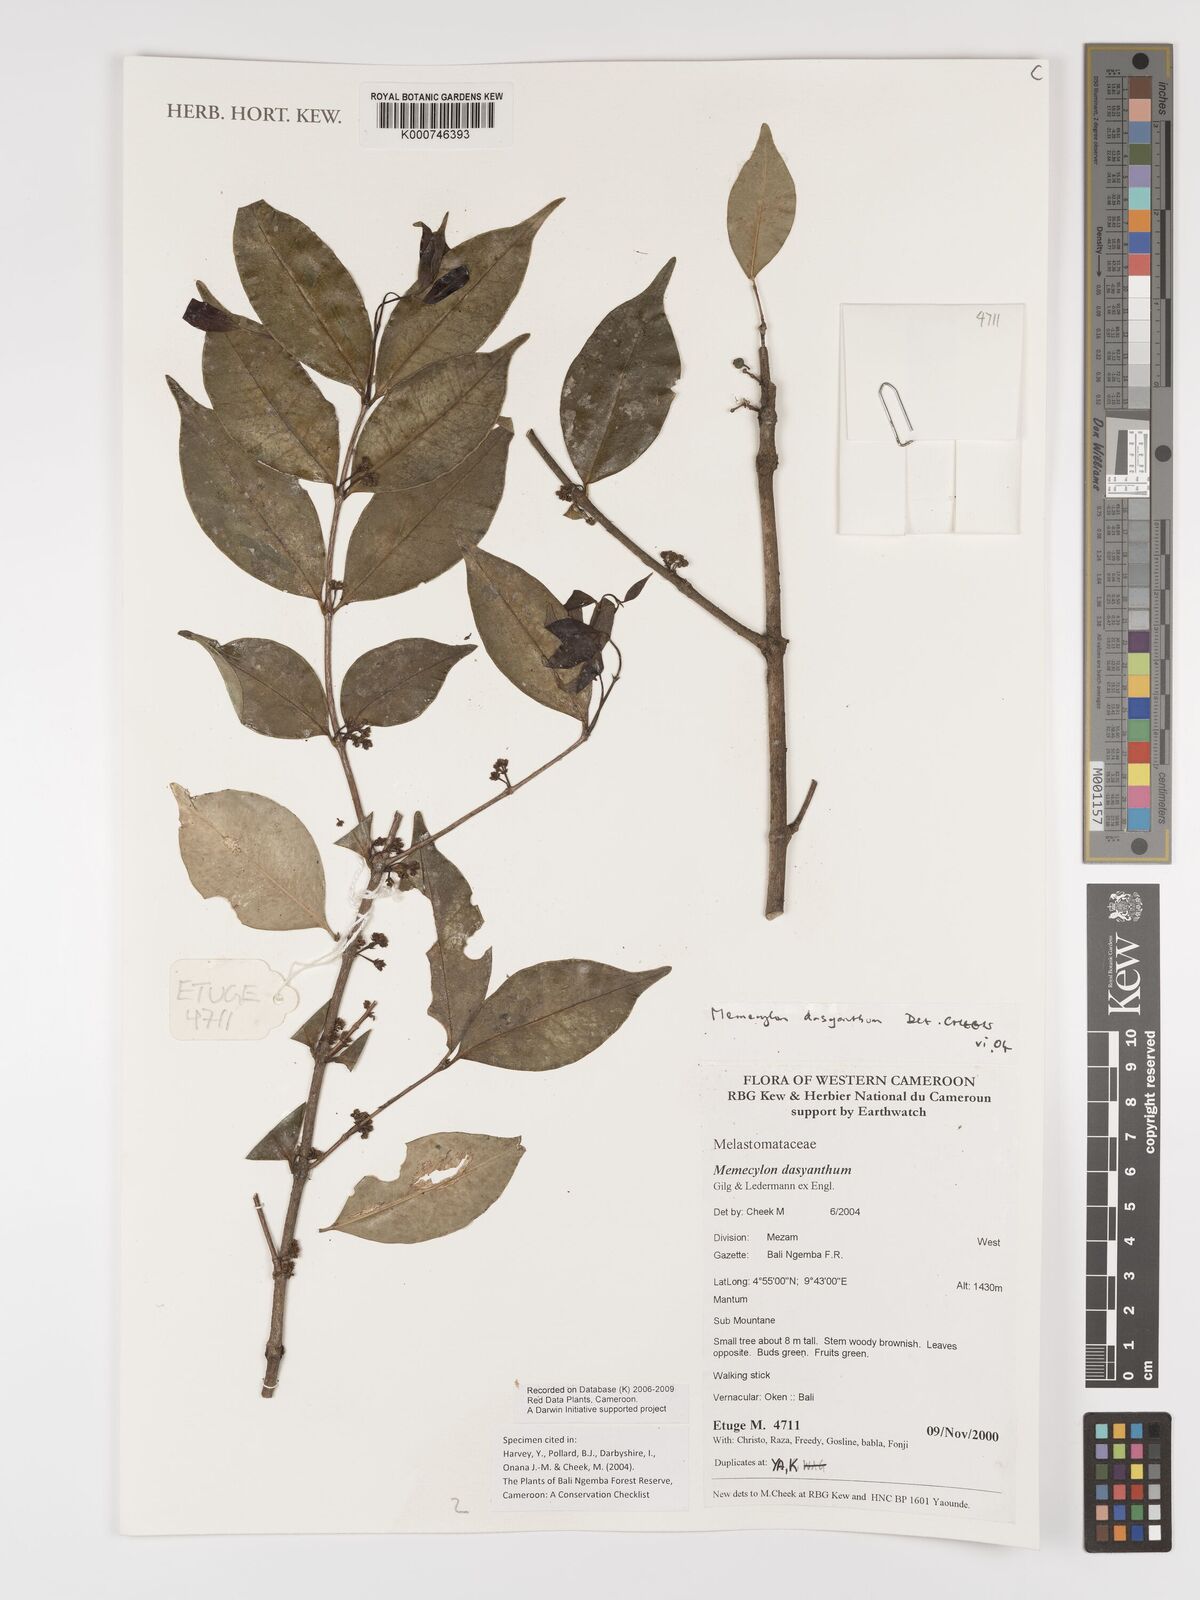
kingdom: Plantae
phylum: Tracheophyta
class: Magnoliopsida
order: Myrtales
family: Melastomataceae
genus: Memecylon
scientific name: Memecylon dasyanthum
